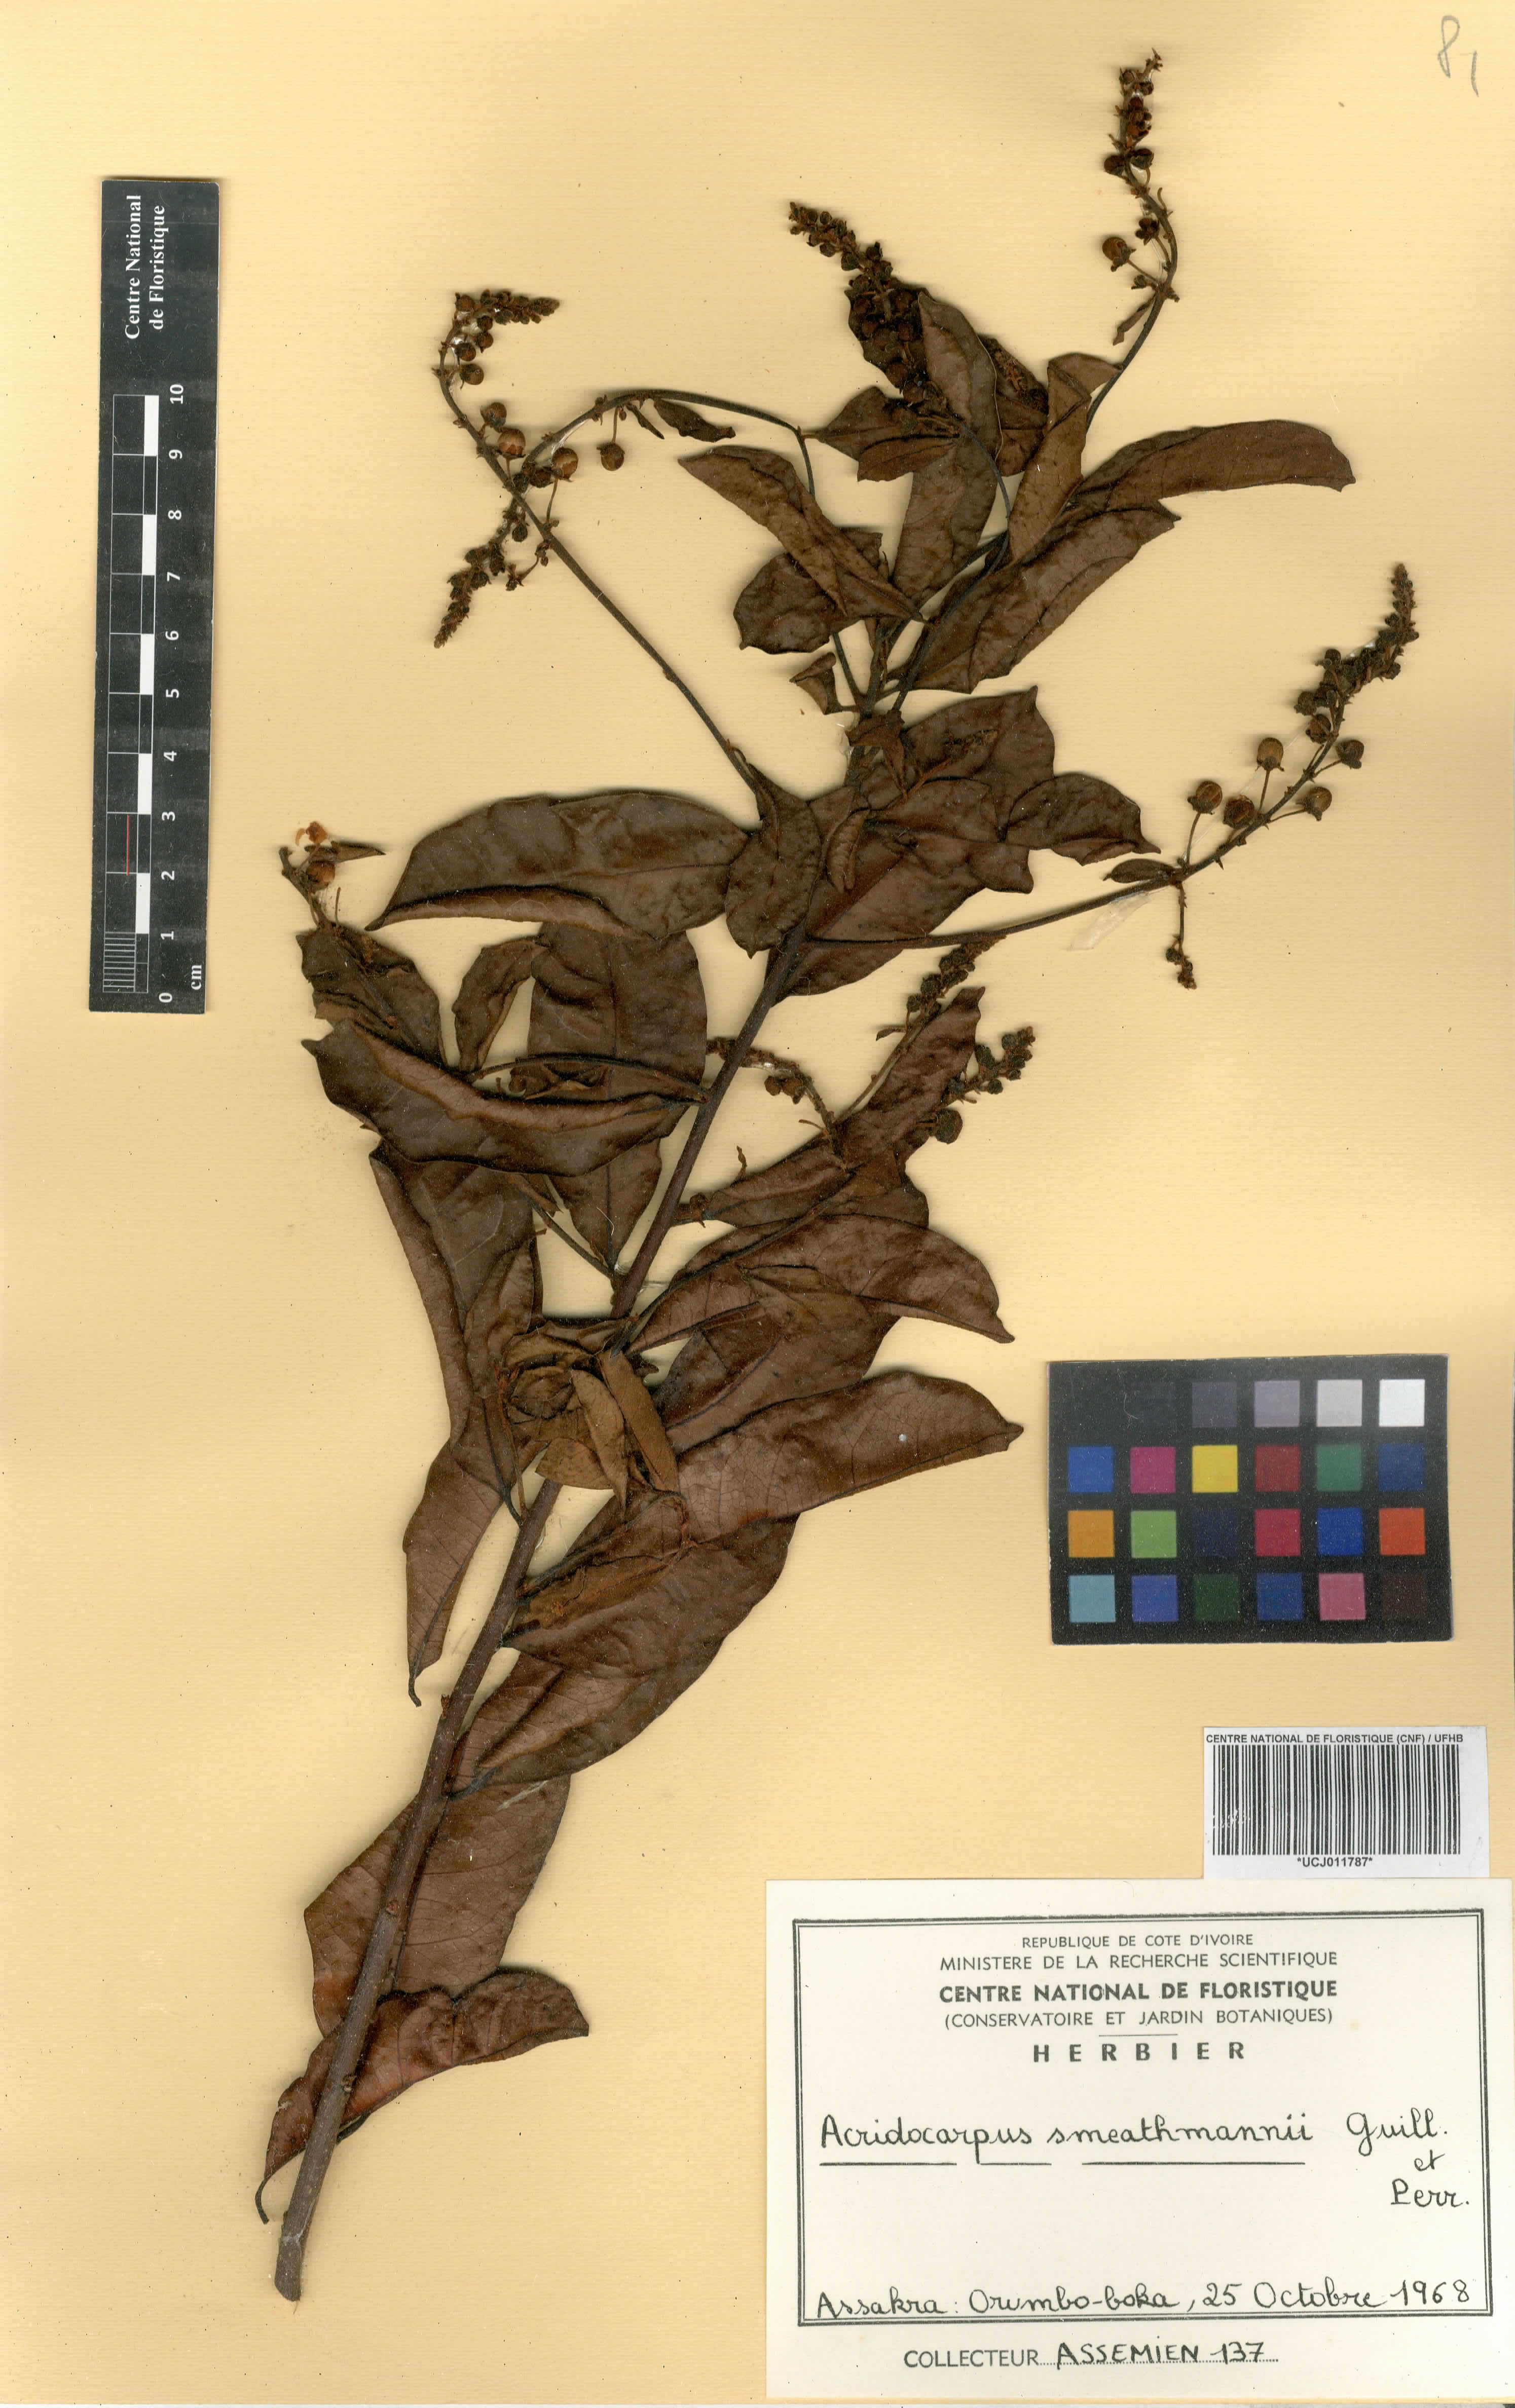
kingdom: Plantae
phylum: Tracheophyta
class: Magnoliopsida
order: Malpighiales
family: Malpighiaceae
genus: Acridocarpus
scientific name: Acridocarpus smeathmannii
